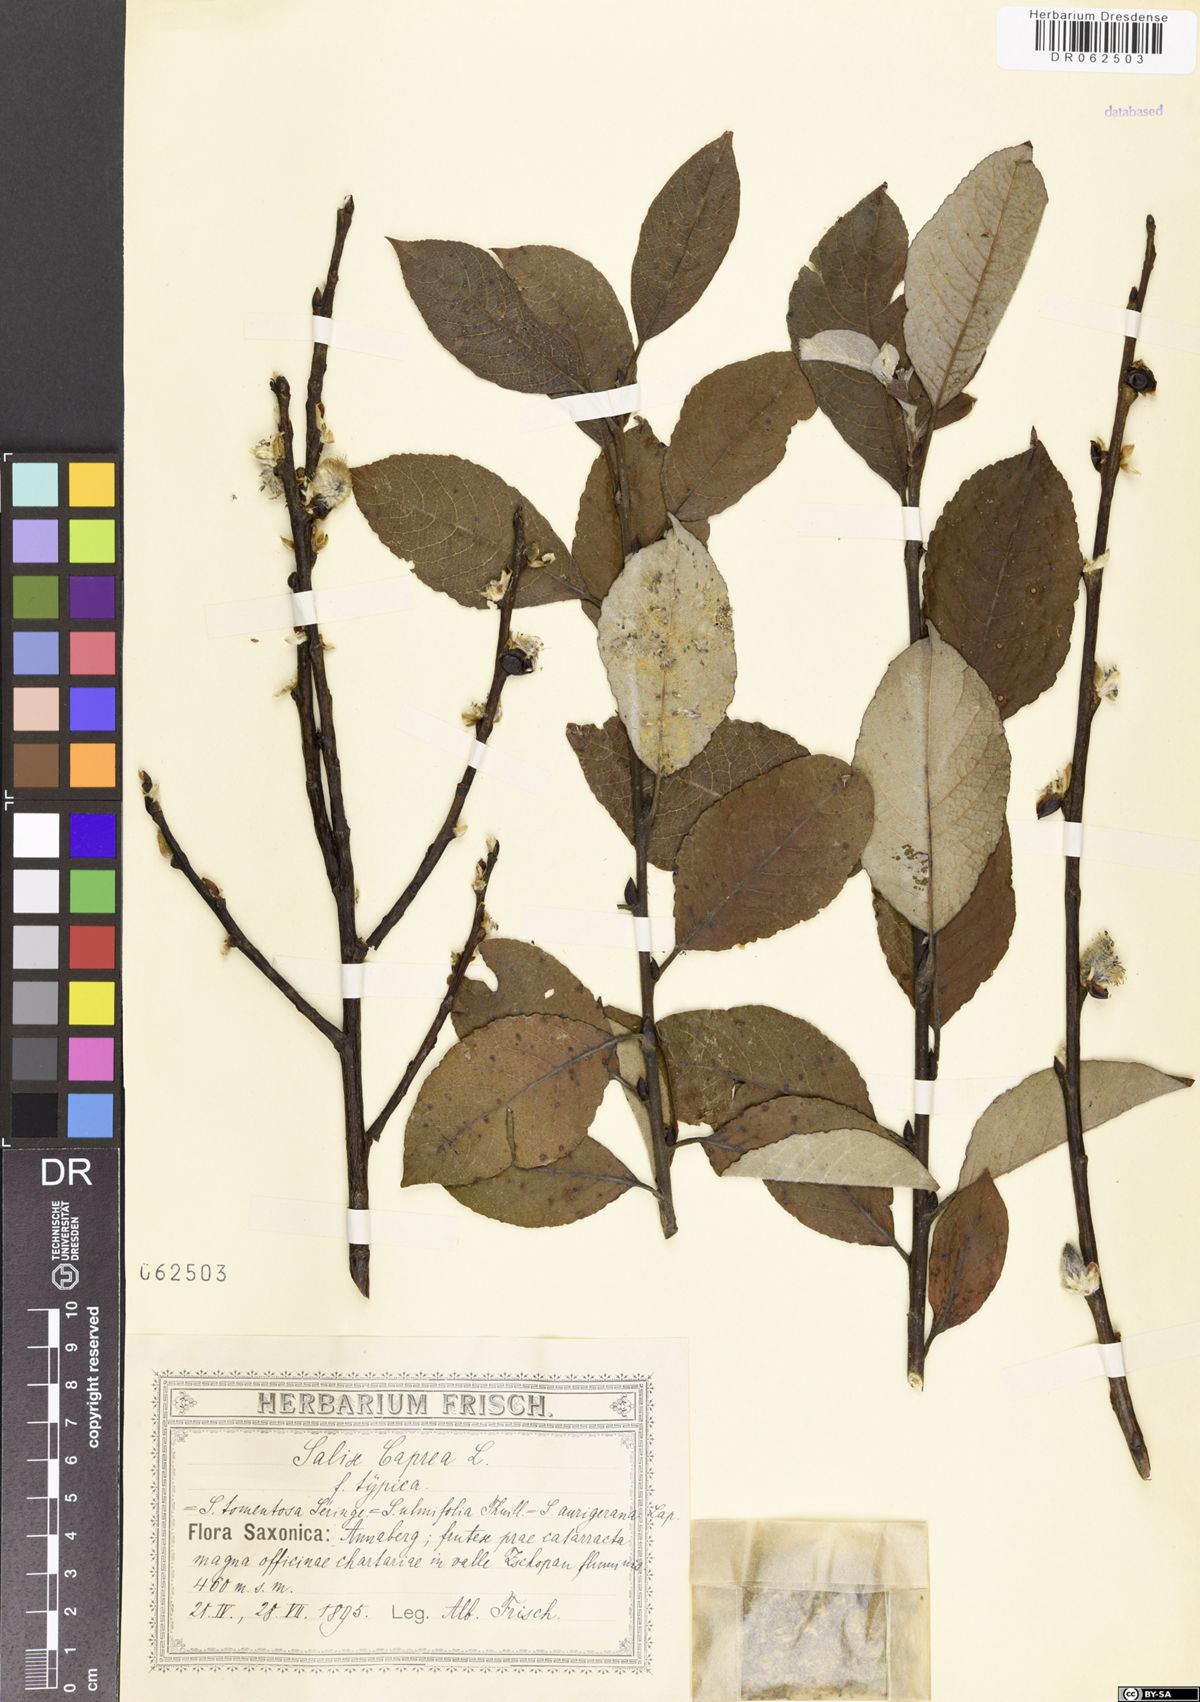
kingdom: Plantae
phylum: Tracheophyta
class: Magnoliopsida
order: Malpighiales
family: Salicaceae
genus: Salix
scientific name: Salix caprea
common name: Goat willow
